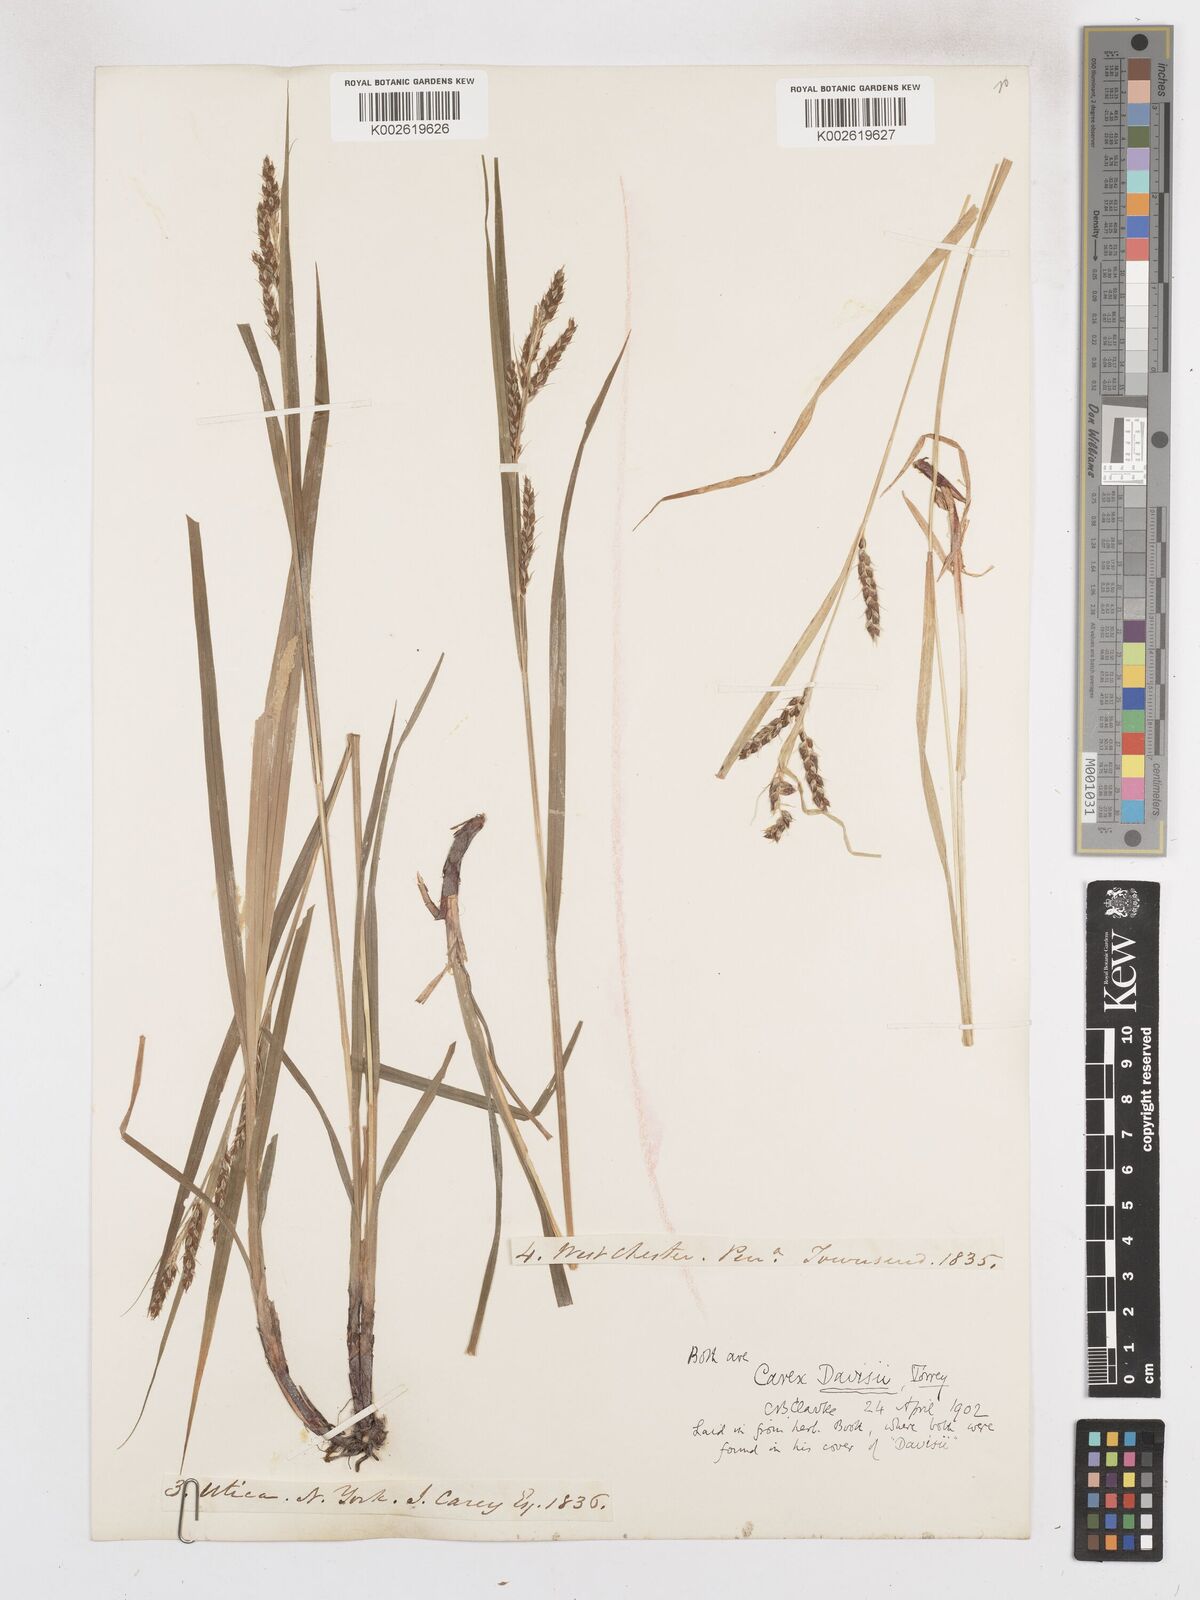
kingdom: Plantae
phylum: Tracheophyta
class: Liliopsida
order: Poales
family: Cyperaceae
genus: Carex
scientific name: Carex davisii
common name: Davis' sedge
